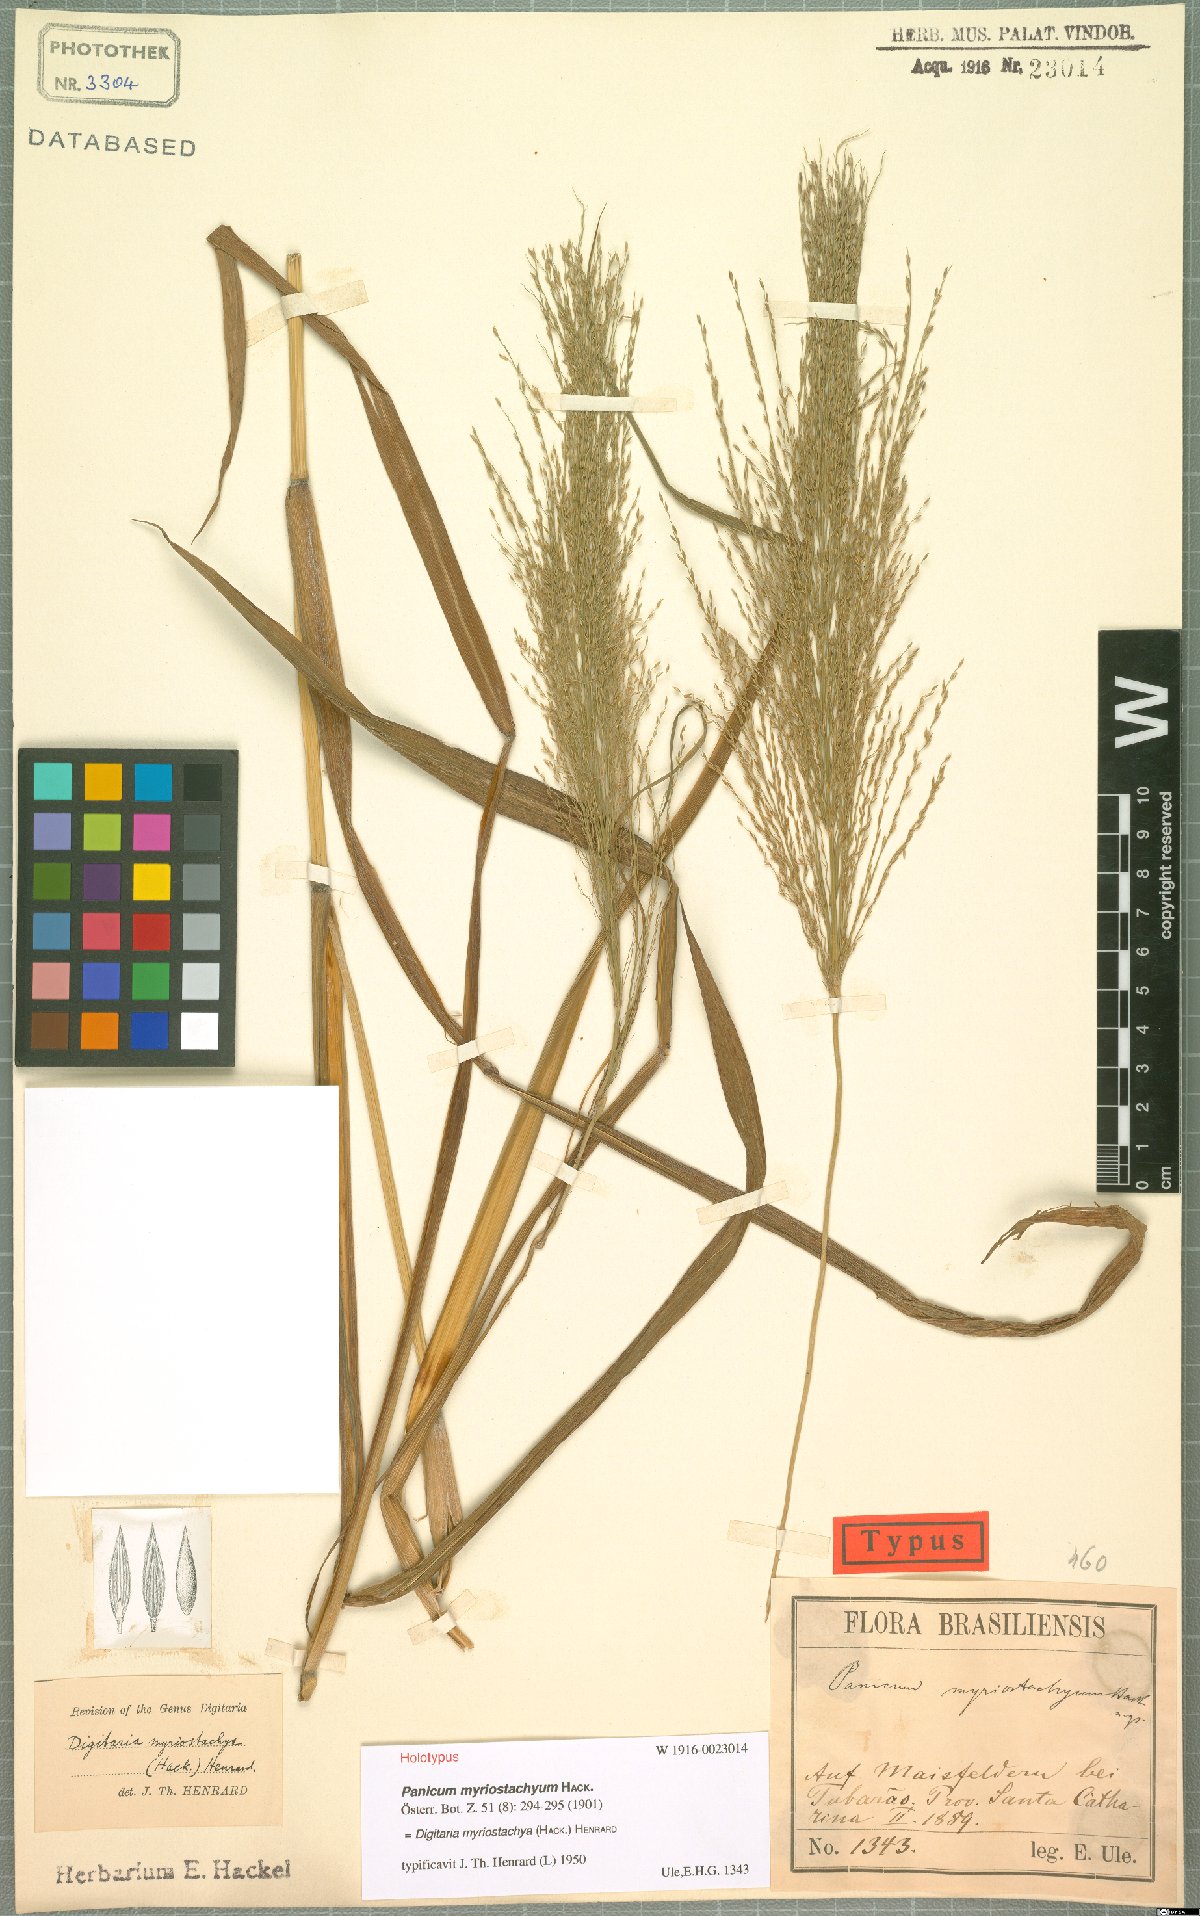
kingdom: Plantae
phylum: Tracheophyta
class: Liliopsida
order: Poales
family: Poaceae
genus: Digitaria
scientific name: Digitaria myriostachya
